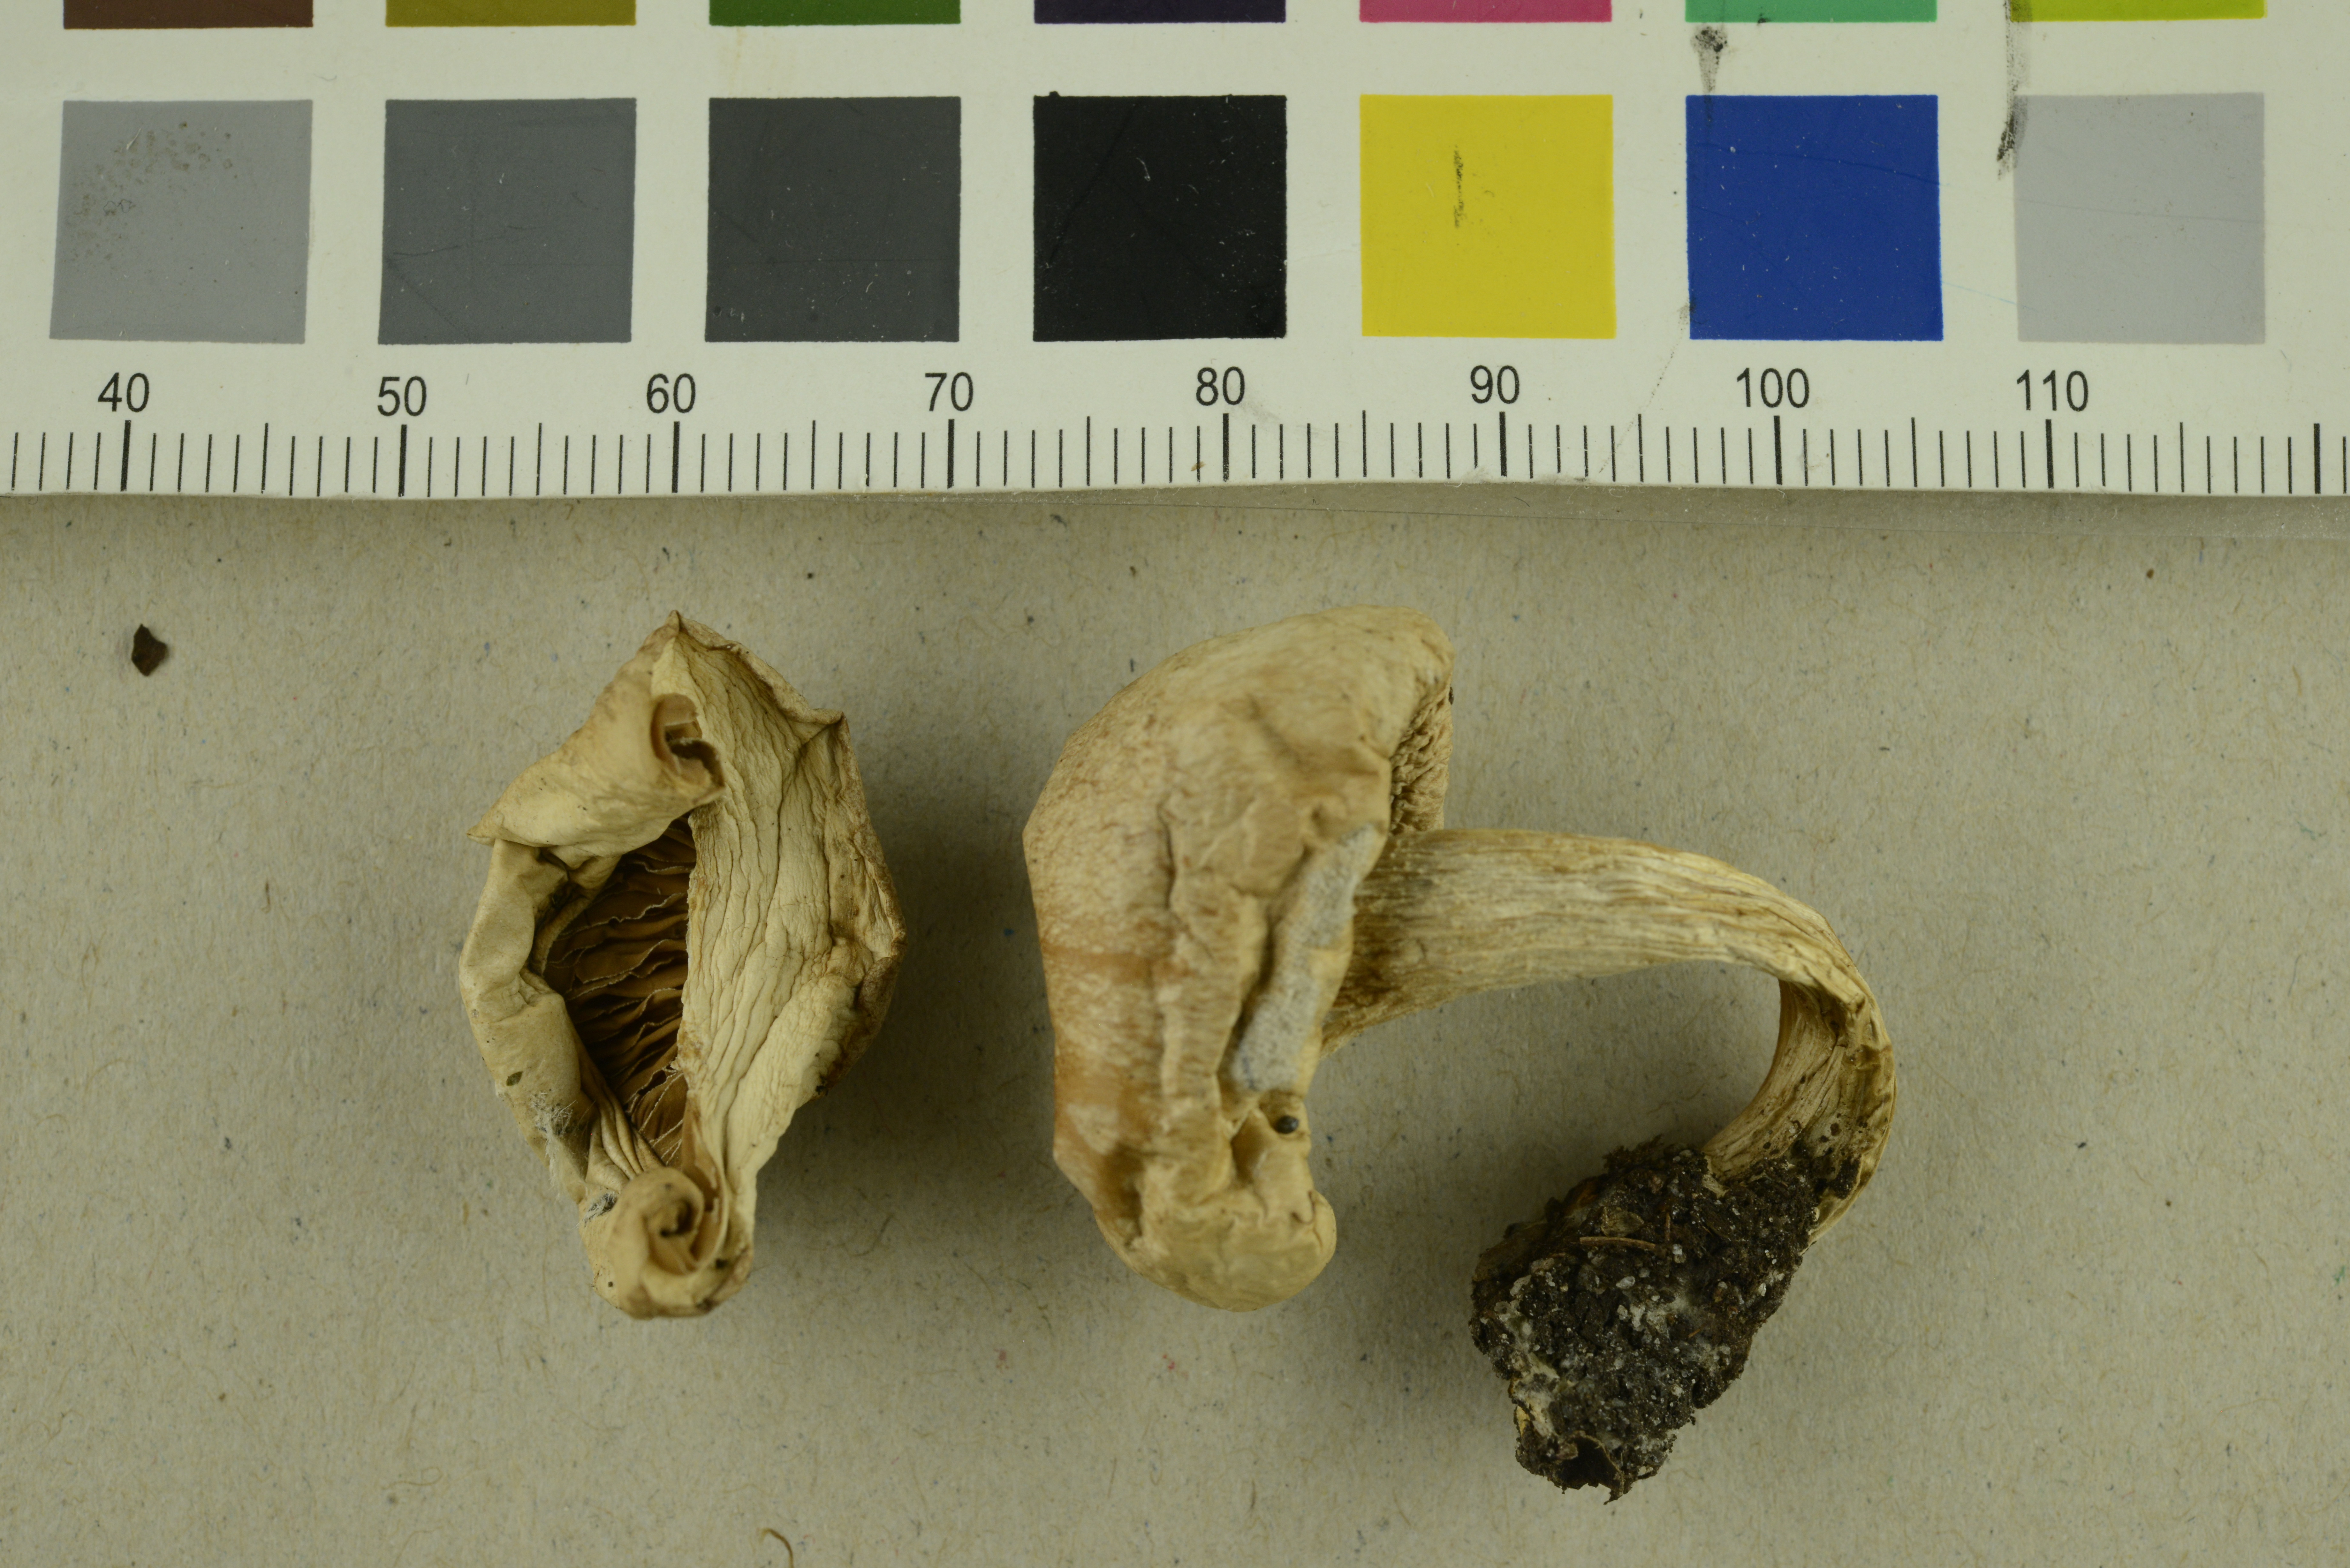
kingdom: Fungi
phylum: Basidiomycota
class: Agaricomycetes
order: Agaricales
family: Hymenogastraceae
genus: Hebeloma
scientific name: Hebeloma
